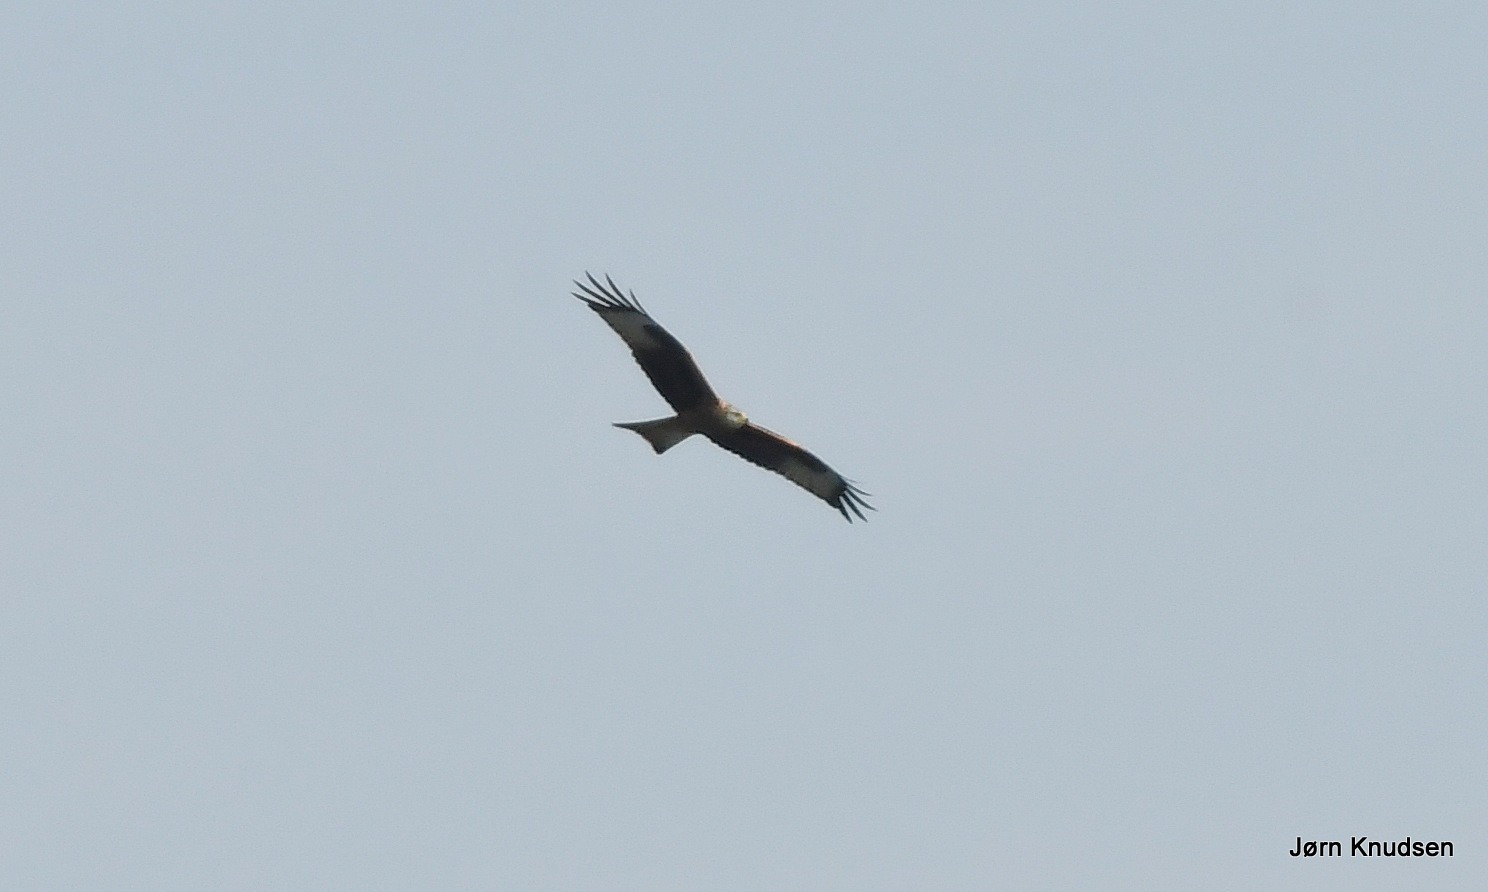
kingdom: Animalia
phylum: Chordata
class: Aves
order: Accipitriformes
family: Accipitridae
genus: Milvus
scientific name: Milvus milvus
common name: Rød glente
